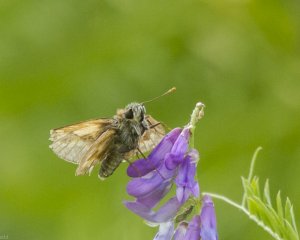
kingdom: Animalia
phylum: Arthropoda
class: Insecta
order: Lepidoptera
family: Hesperiidae
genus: Polites
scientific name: Polites
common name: Long Dash Skipper
